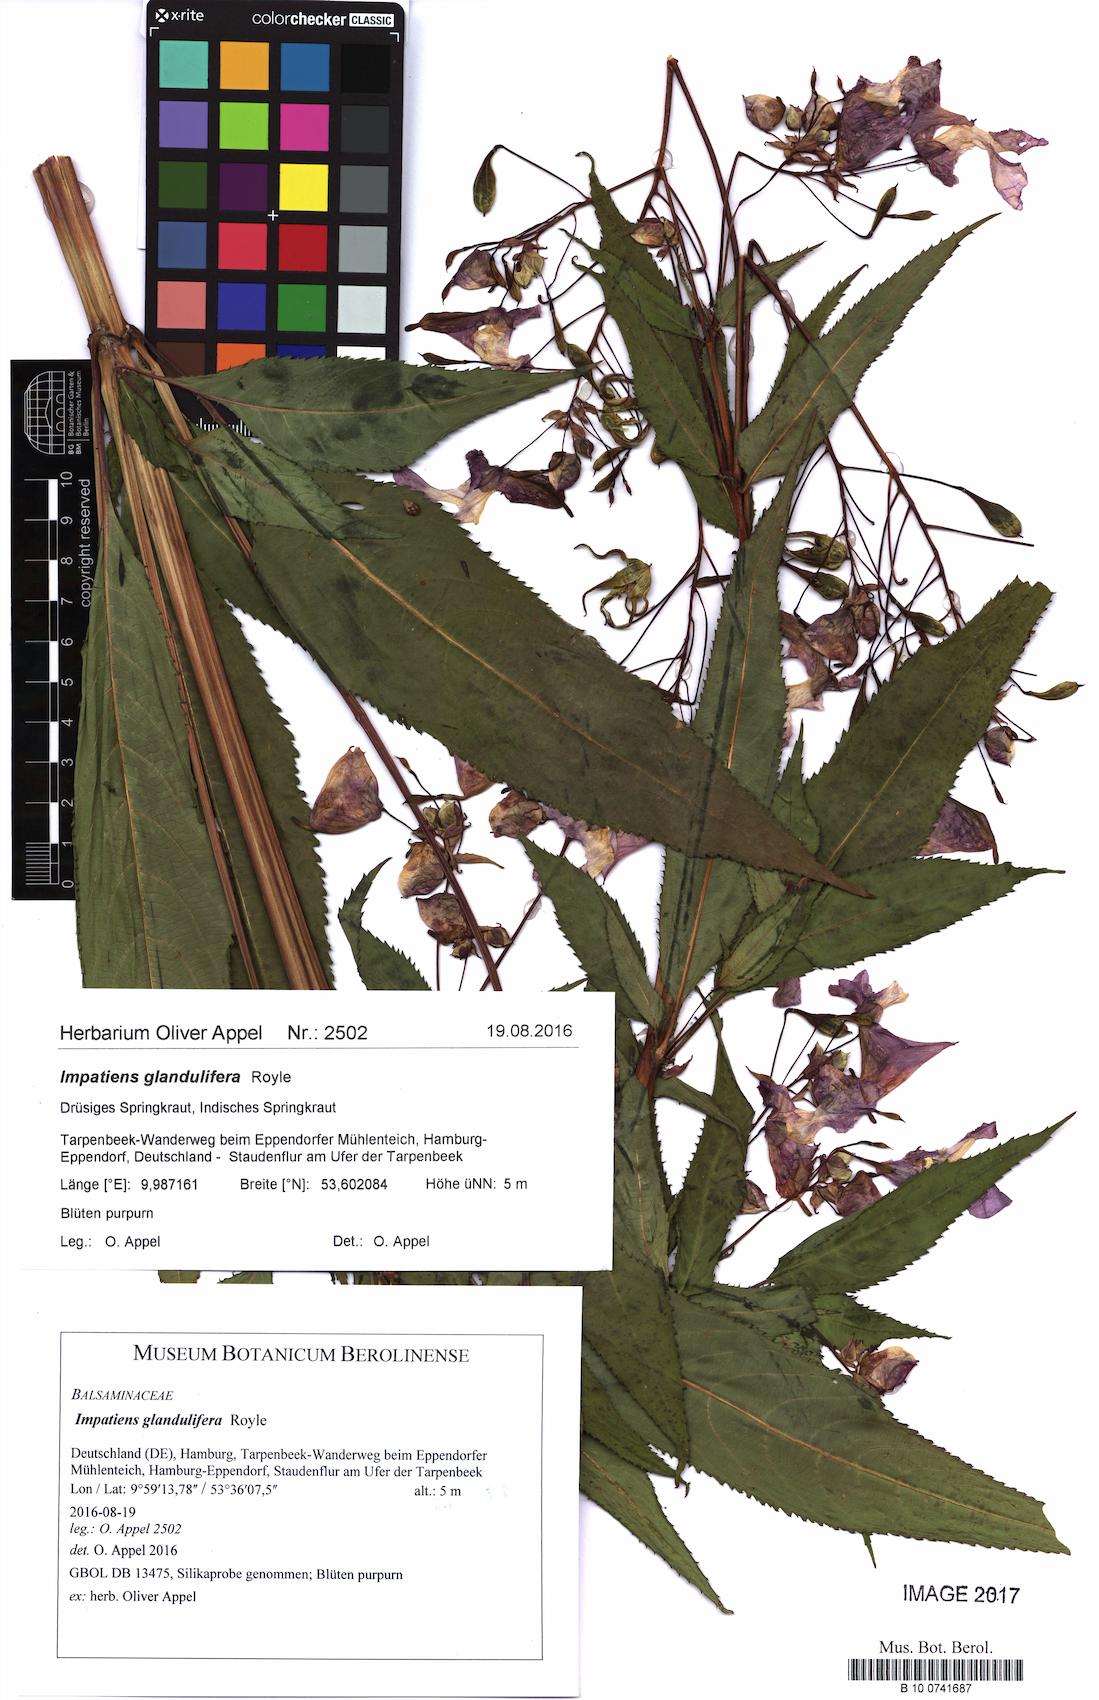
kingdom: Plantae
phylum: Tracheophyta
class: Magnoliopsida
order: Ericales
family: Balsaminaceae
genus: Impatiens
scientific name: Impatiens glandulifera
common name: Himalayan balsam
